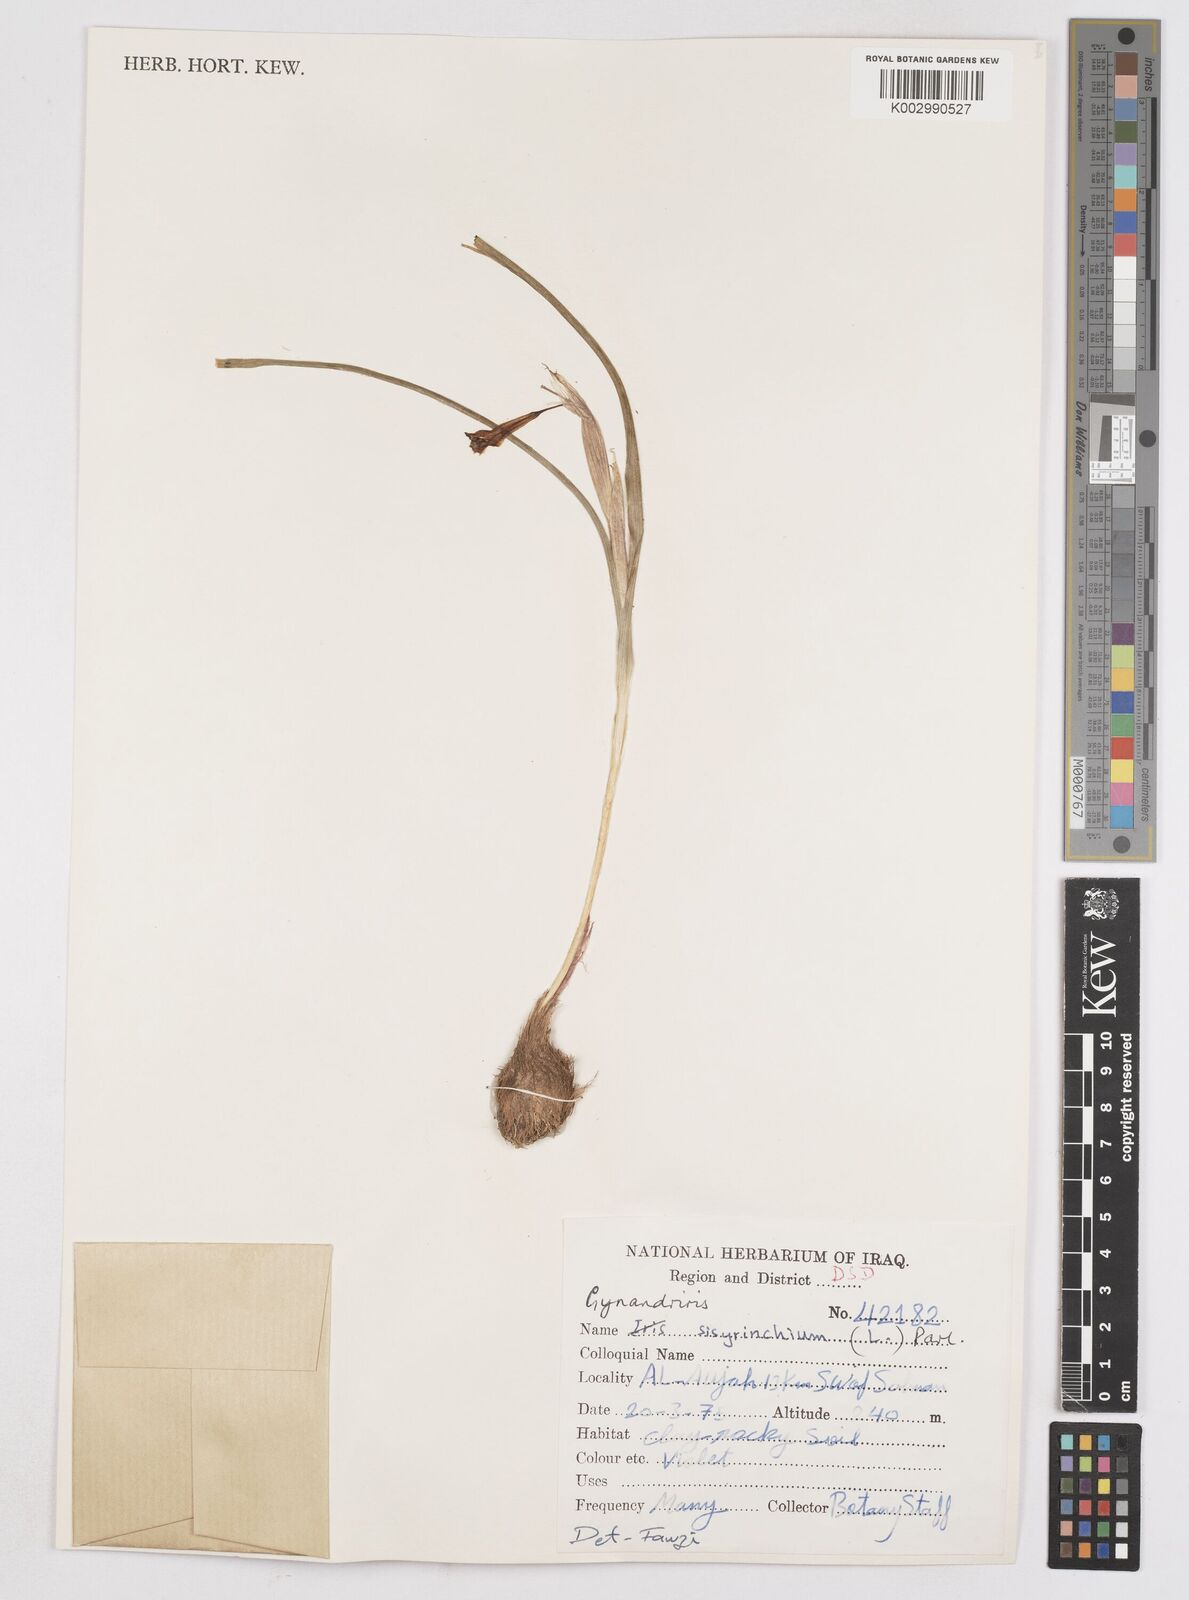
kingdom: Plantae
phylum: Tracheophyta
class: Liliopsida
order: Asparagales
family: Iridaceae
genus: Moraea
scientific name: Moraea sisyrinchium
